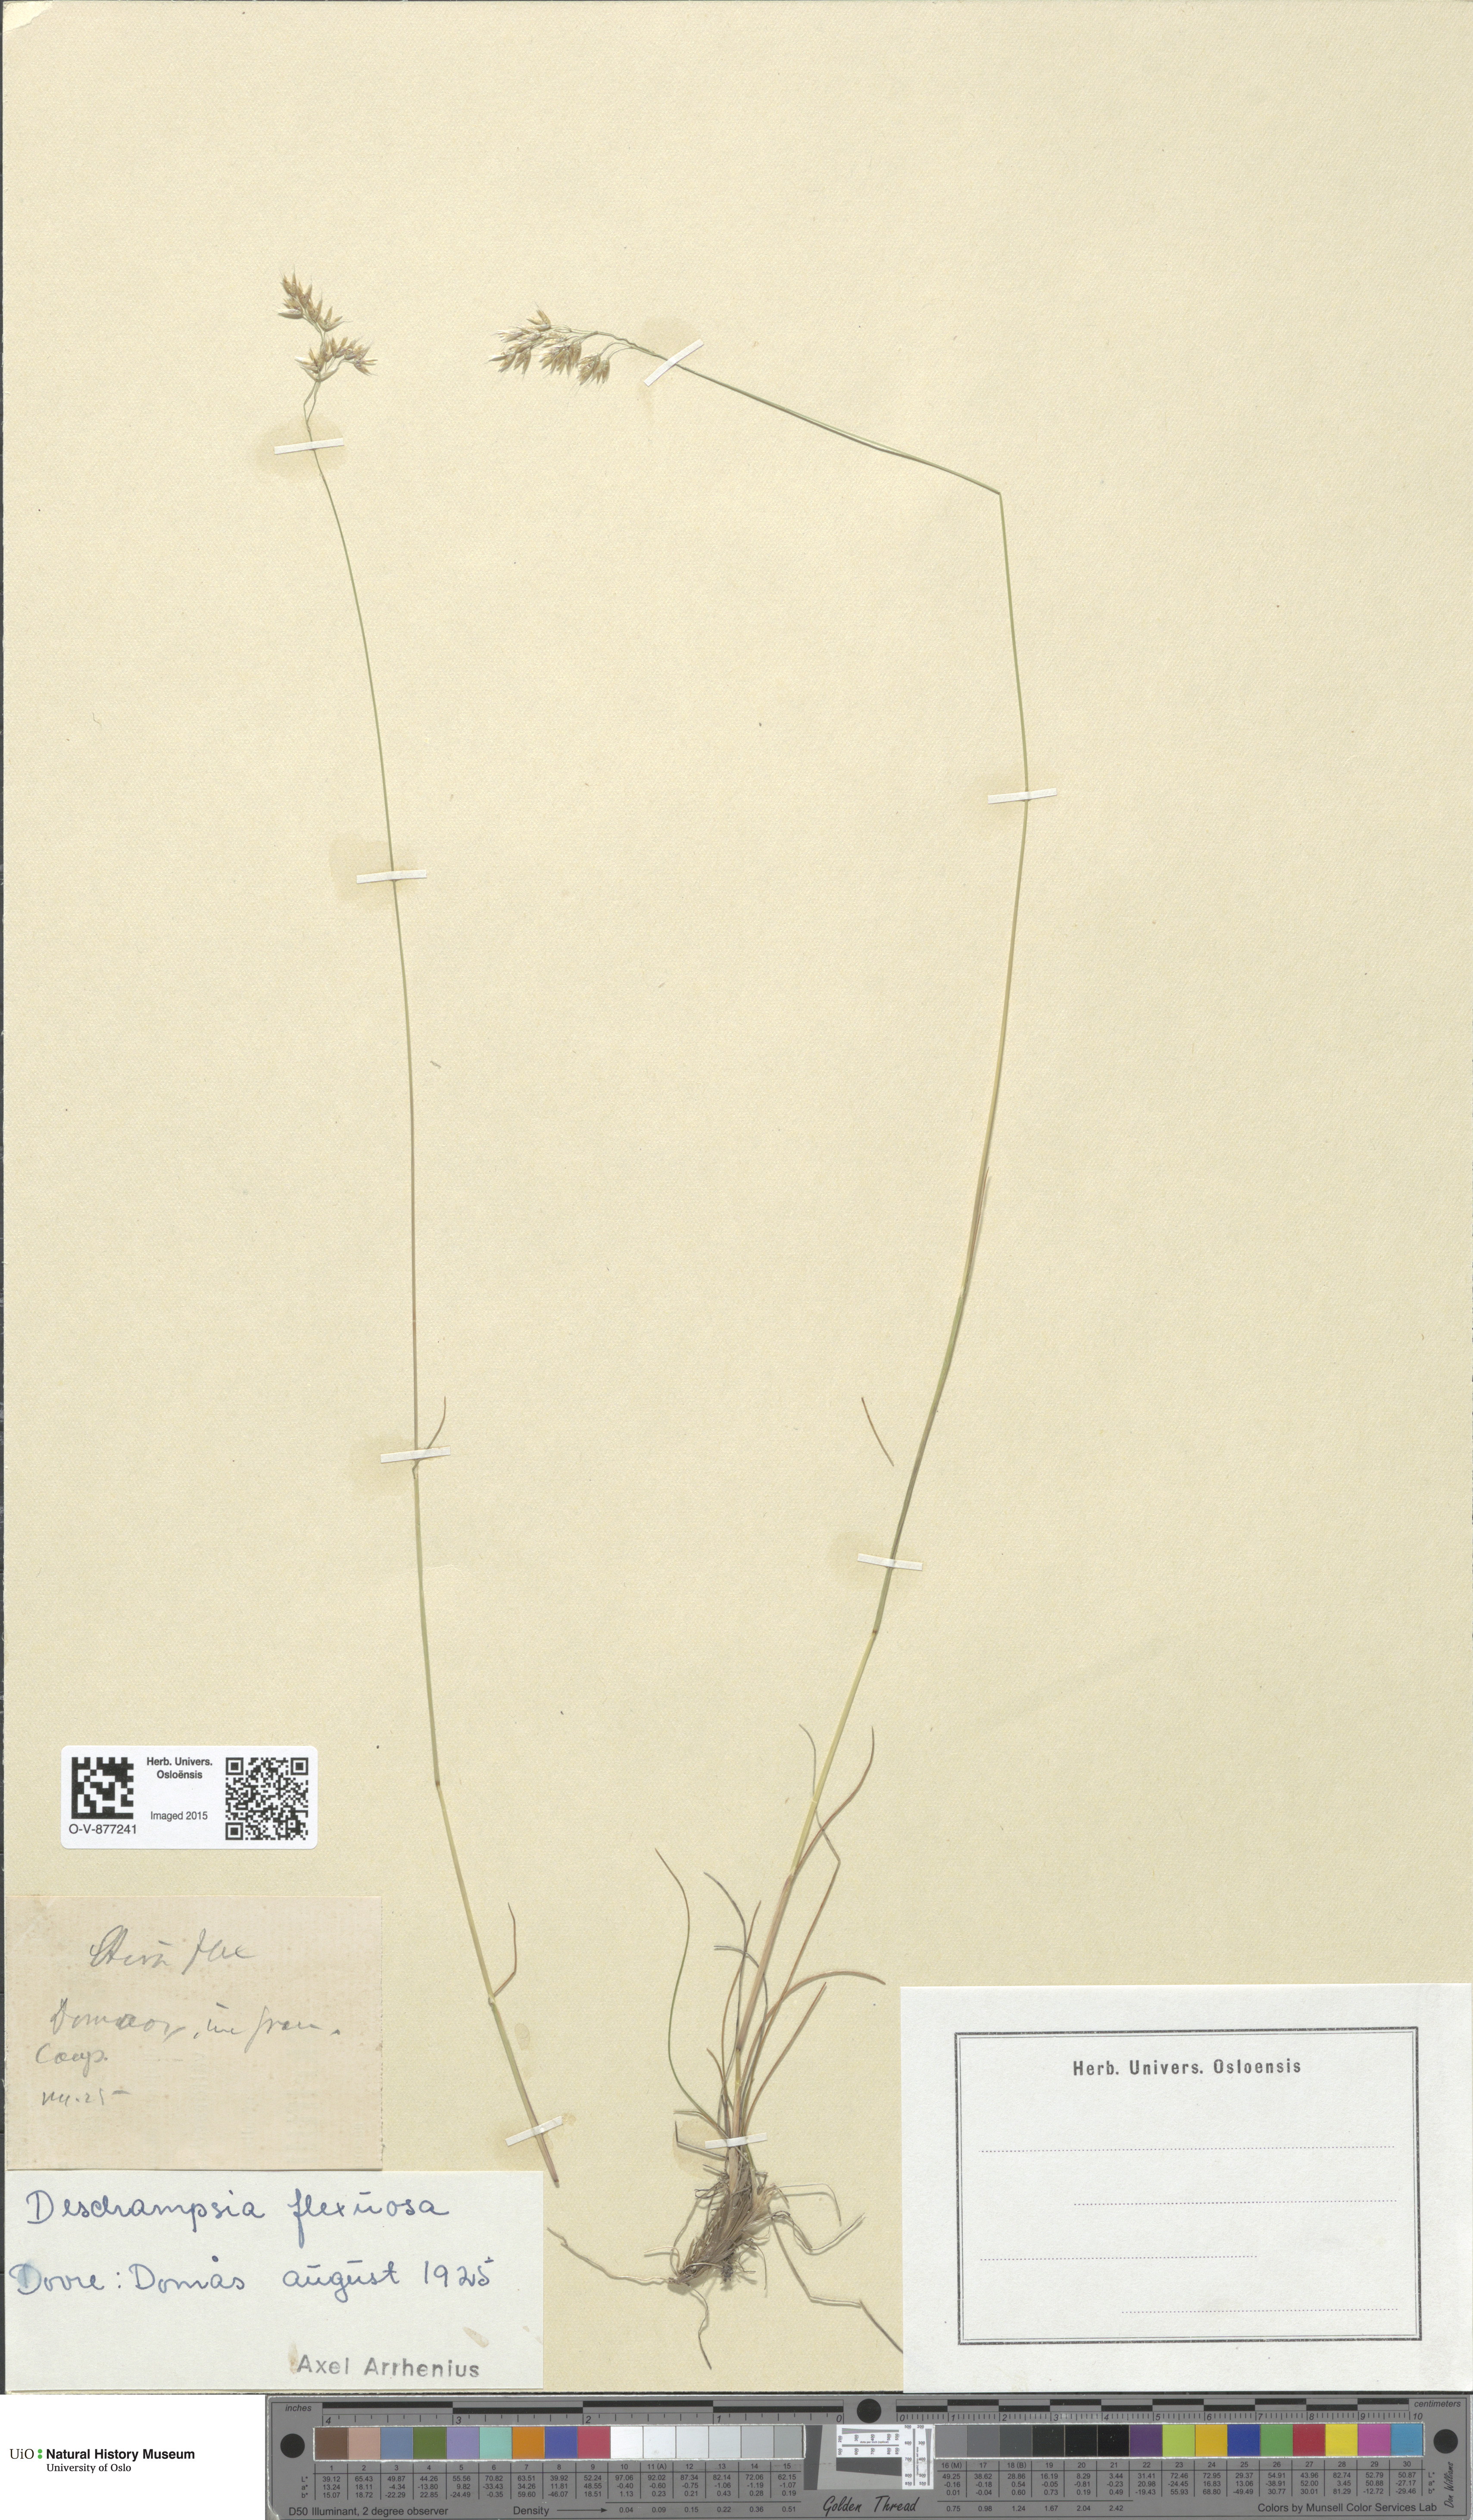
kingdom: Plantae
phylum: Tracheophyta
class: Liliopsida
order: Poales
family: Poaceae
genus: Avenella
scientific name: Avenella flexuosa
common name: Wavy hairgrass
